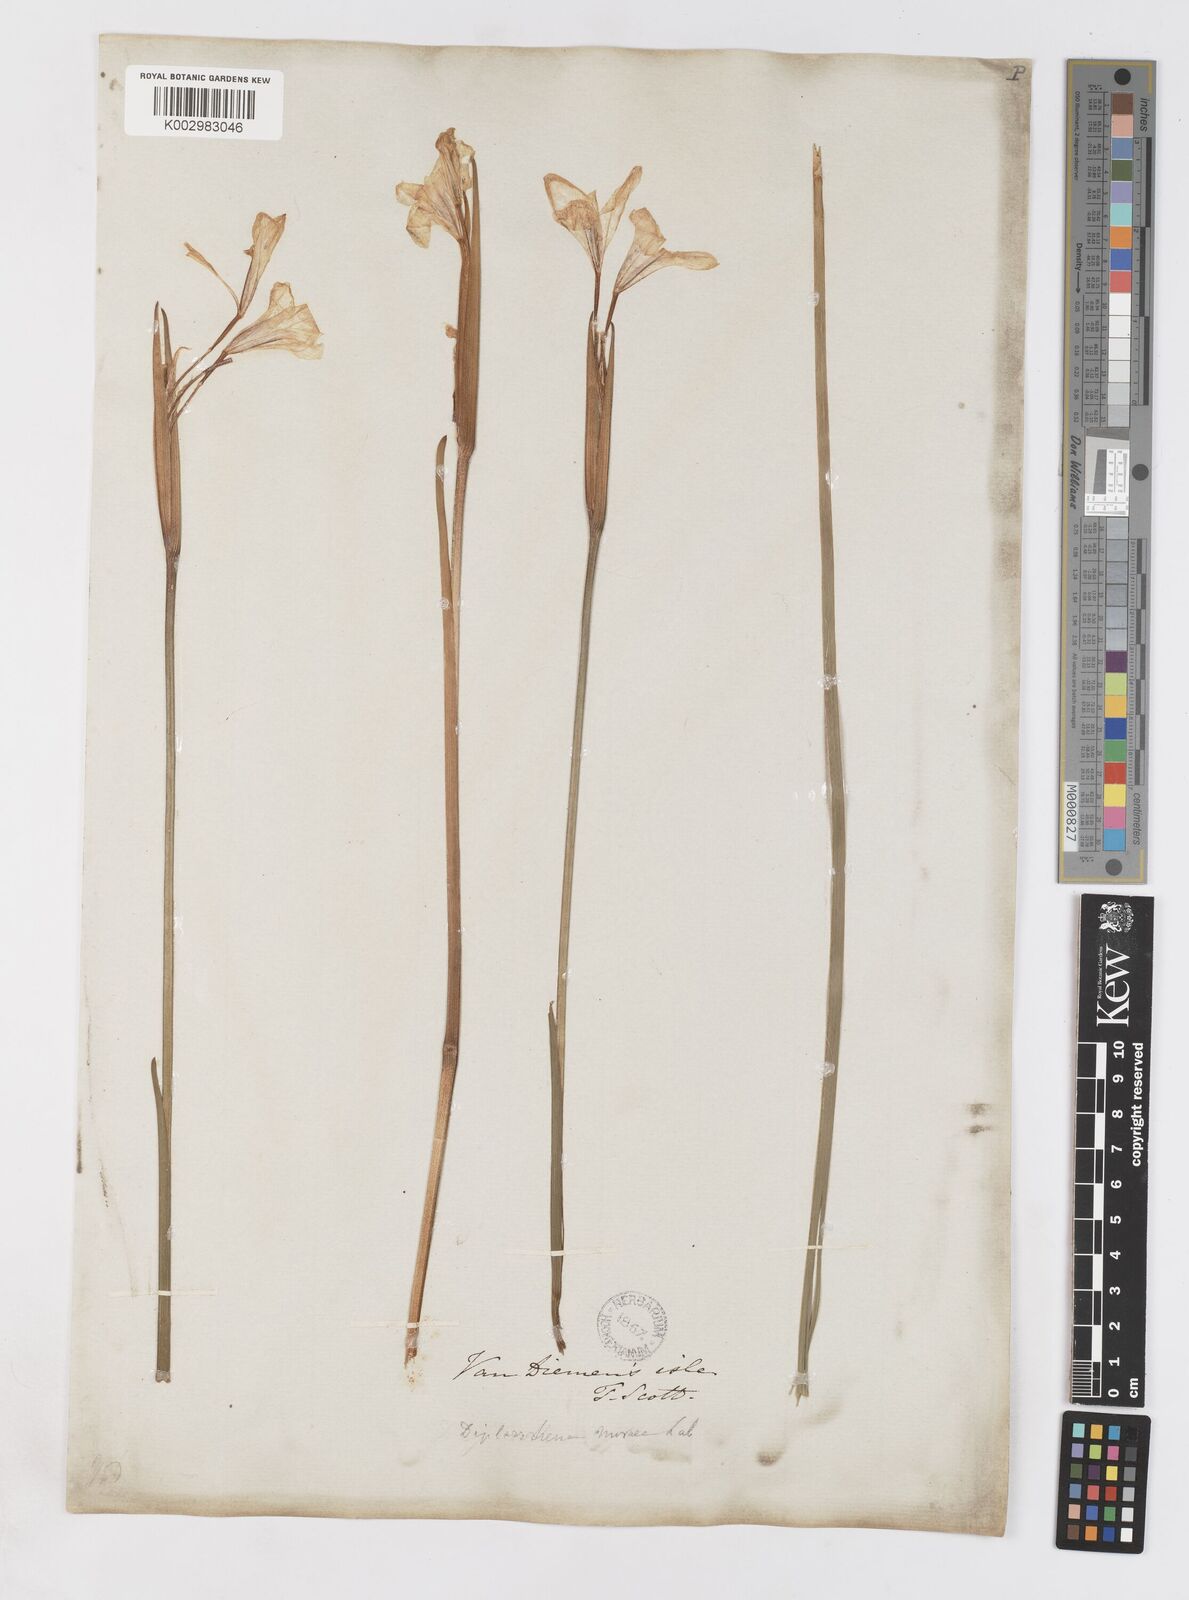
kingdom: Plantae
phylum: Tracheophyta
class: Liliopsida
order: Asparagales
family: Iridaceae
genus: Diplarrena
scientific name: Diplarrena moraea
